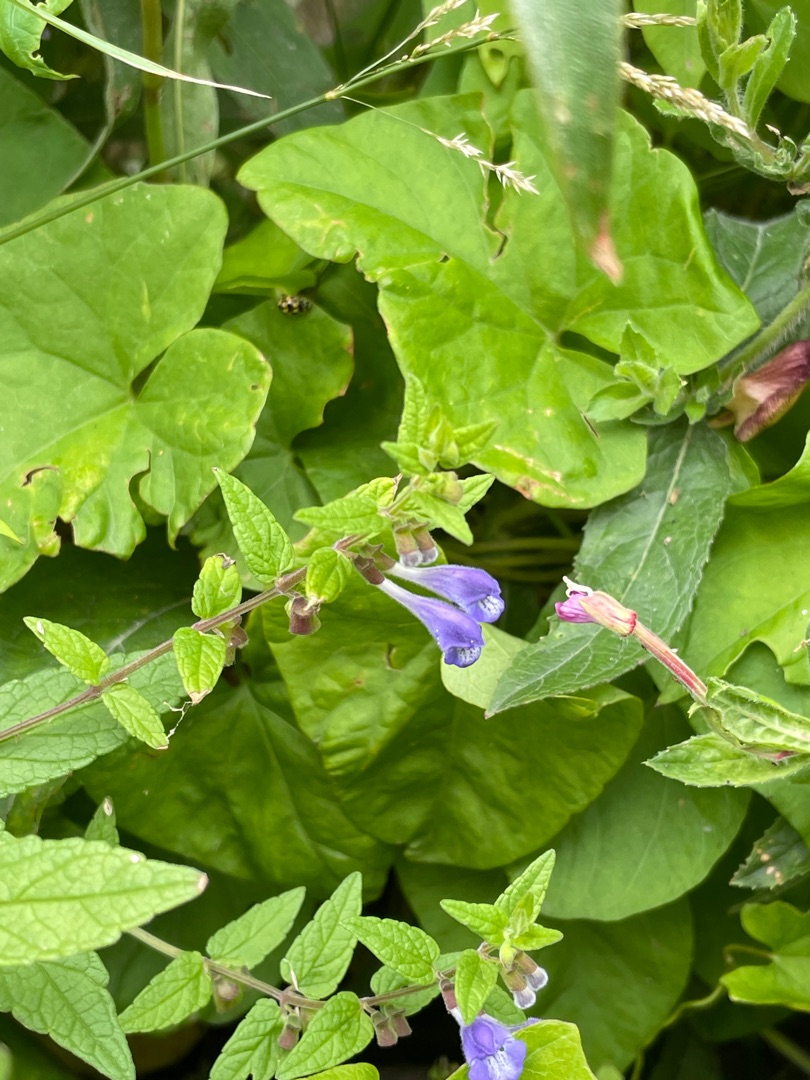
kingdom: Plantae
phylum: Tracheophyta
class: Magnoliopsida
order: Lamiales
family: Lamiaceae
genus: Scutellaria
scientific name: Scutellaria galericulata
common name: Almindelig skjolddrager
